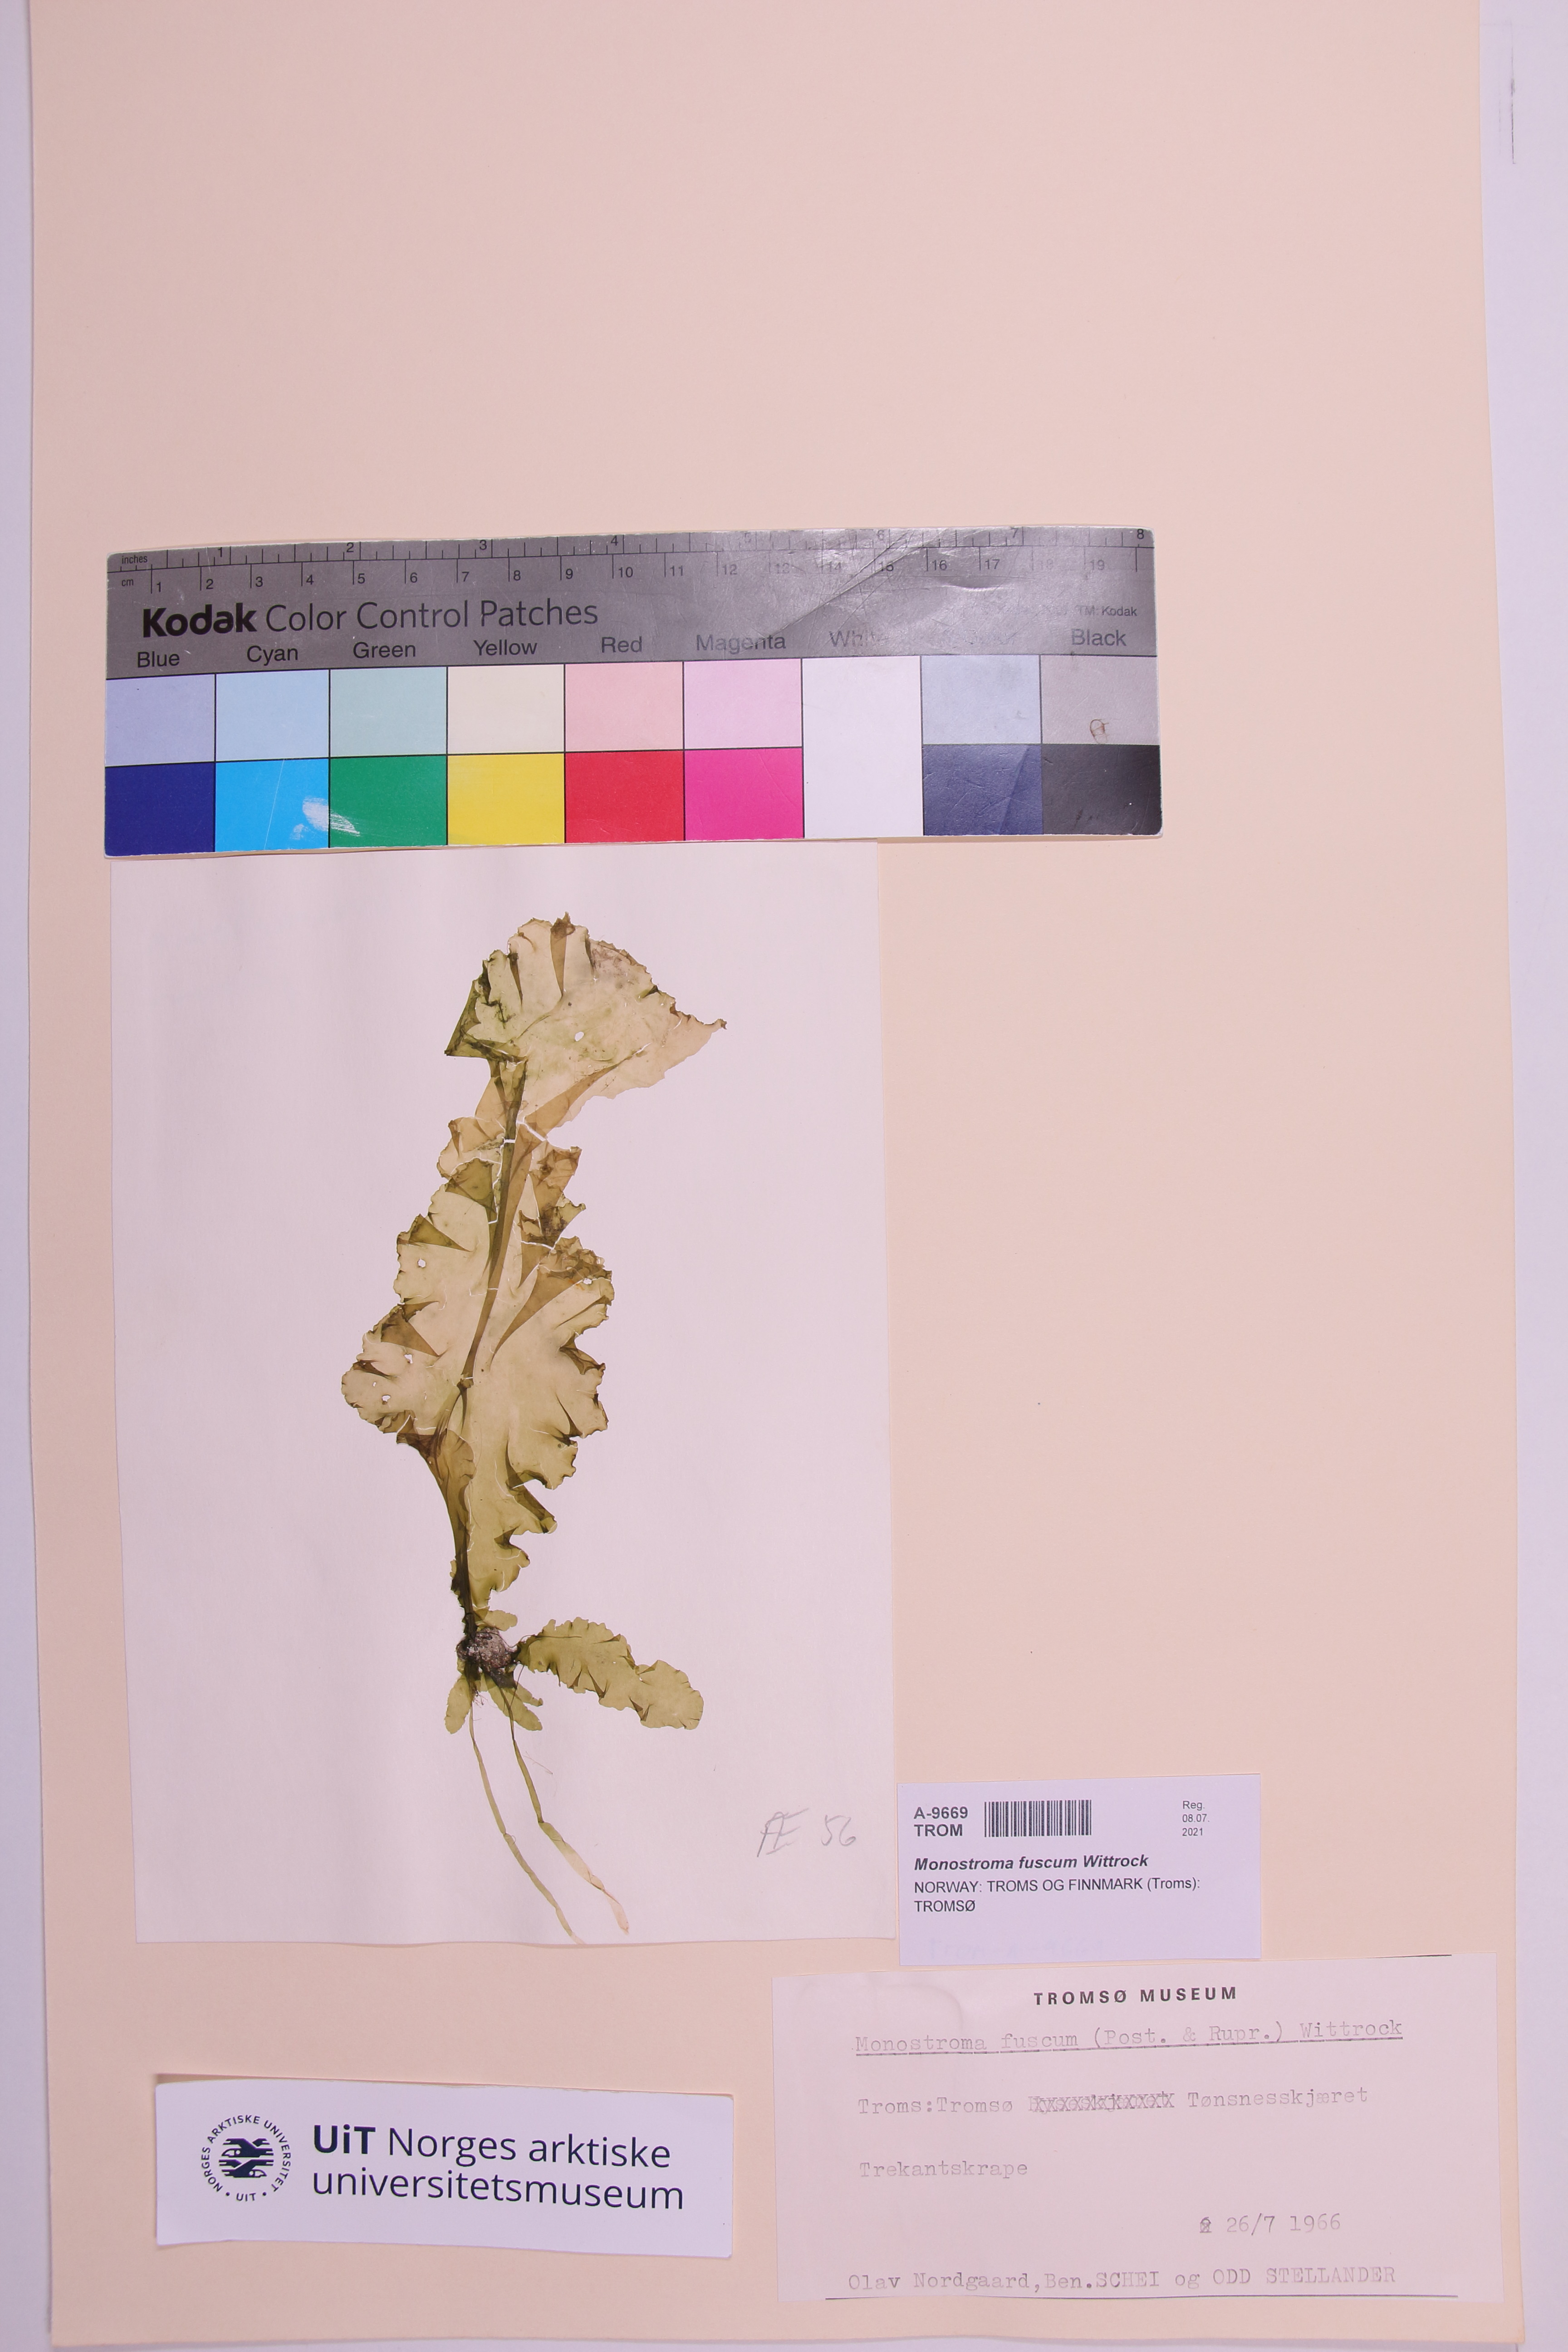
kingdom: Plantae
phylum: Chlorophyta
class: Ulvophyceae
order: Ulvales
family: Ulvaceae
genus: Ulvaria
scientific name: Ulvaria splendens
